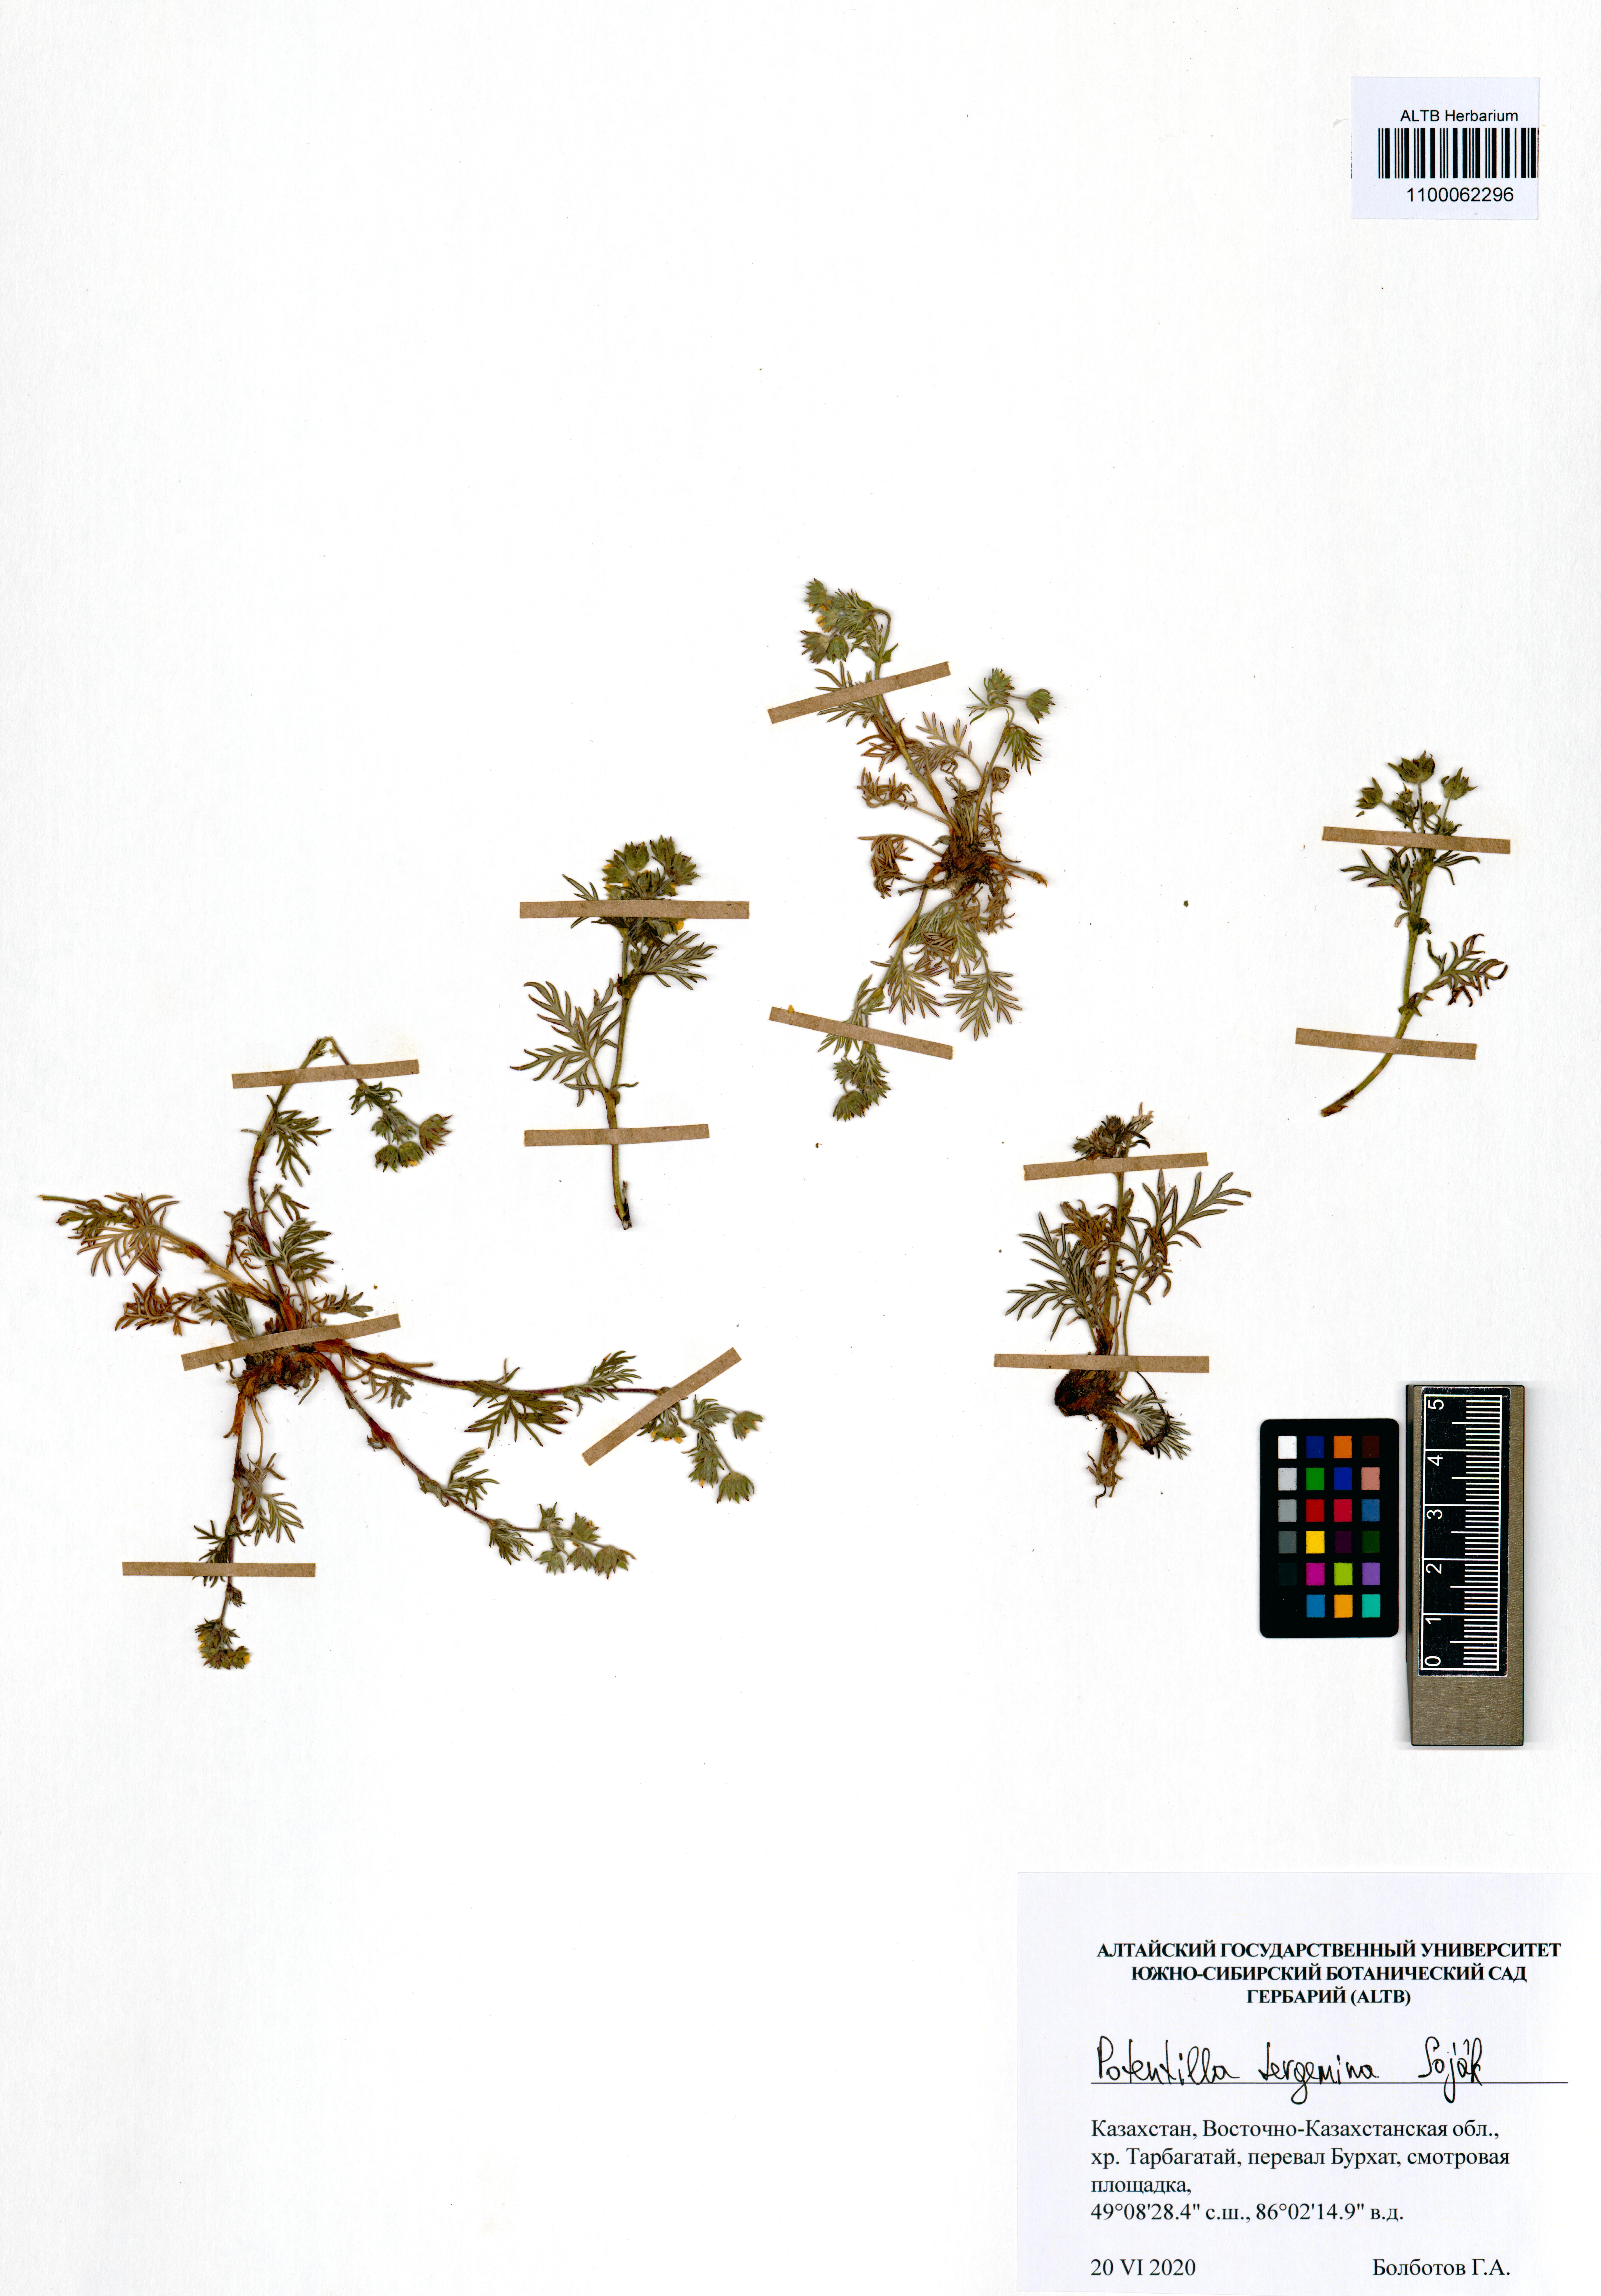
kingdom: Plantae
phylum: Tracheophyta
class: Magnoliopsida
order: Rosales
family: Rosaceae
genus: Potentilla
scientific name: Potentilla tergemina
